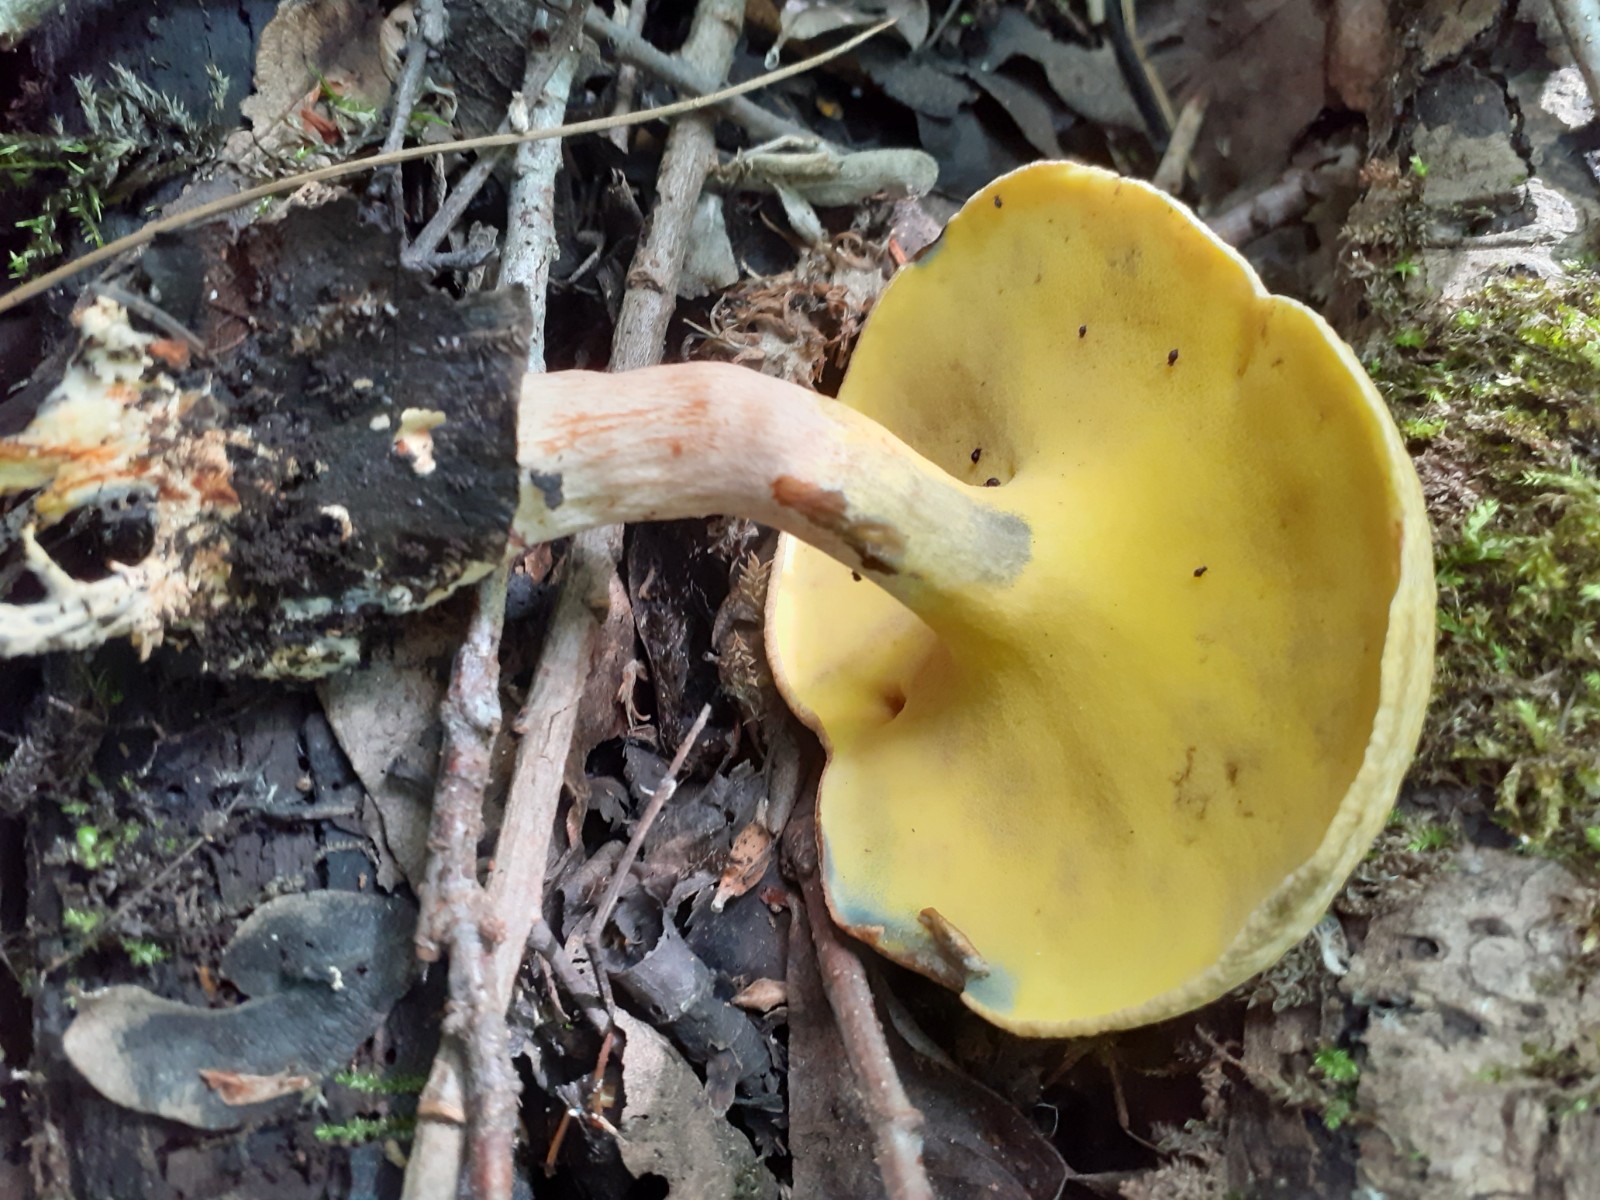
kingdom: Fungi
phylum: Basidiomycota
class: Agaricomycetes
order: Boletales
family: Paxillaceae
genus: Gyrodon
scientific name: Gyrodon lividus
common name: ellerørhat
